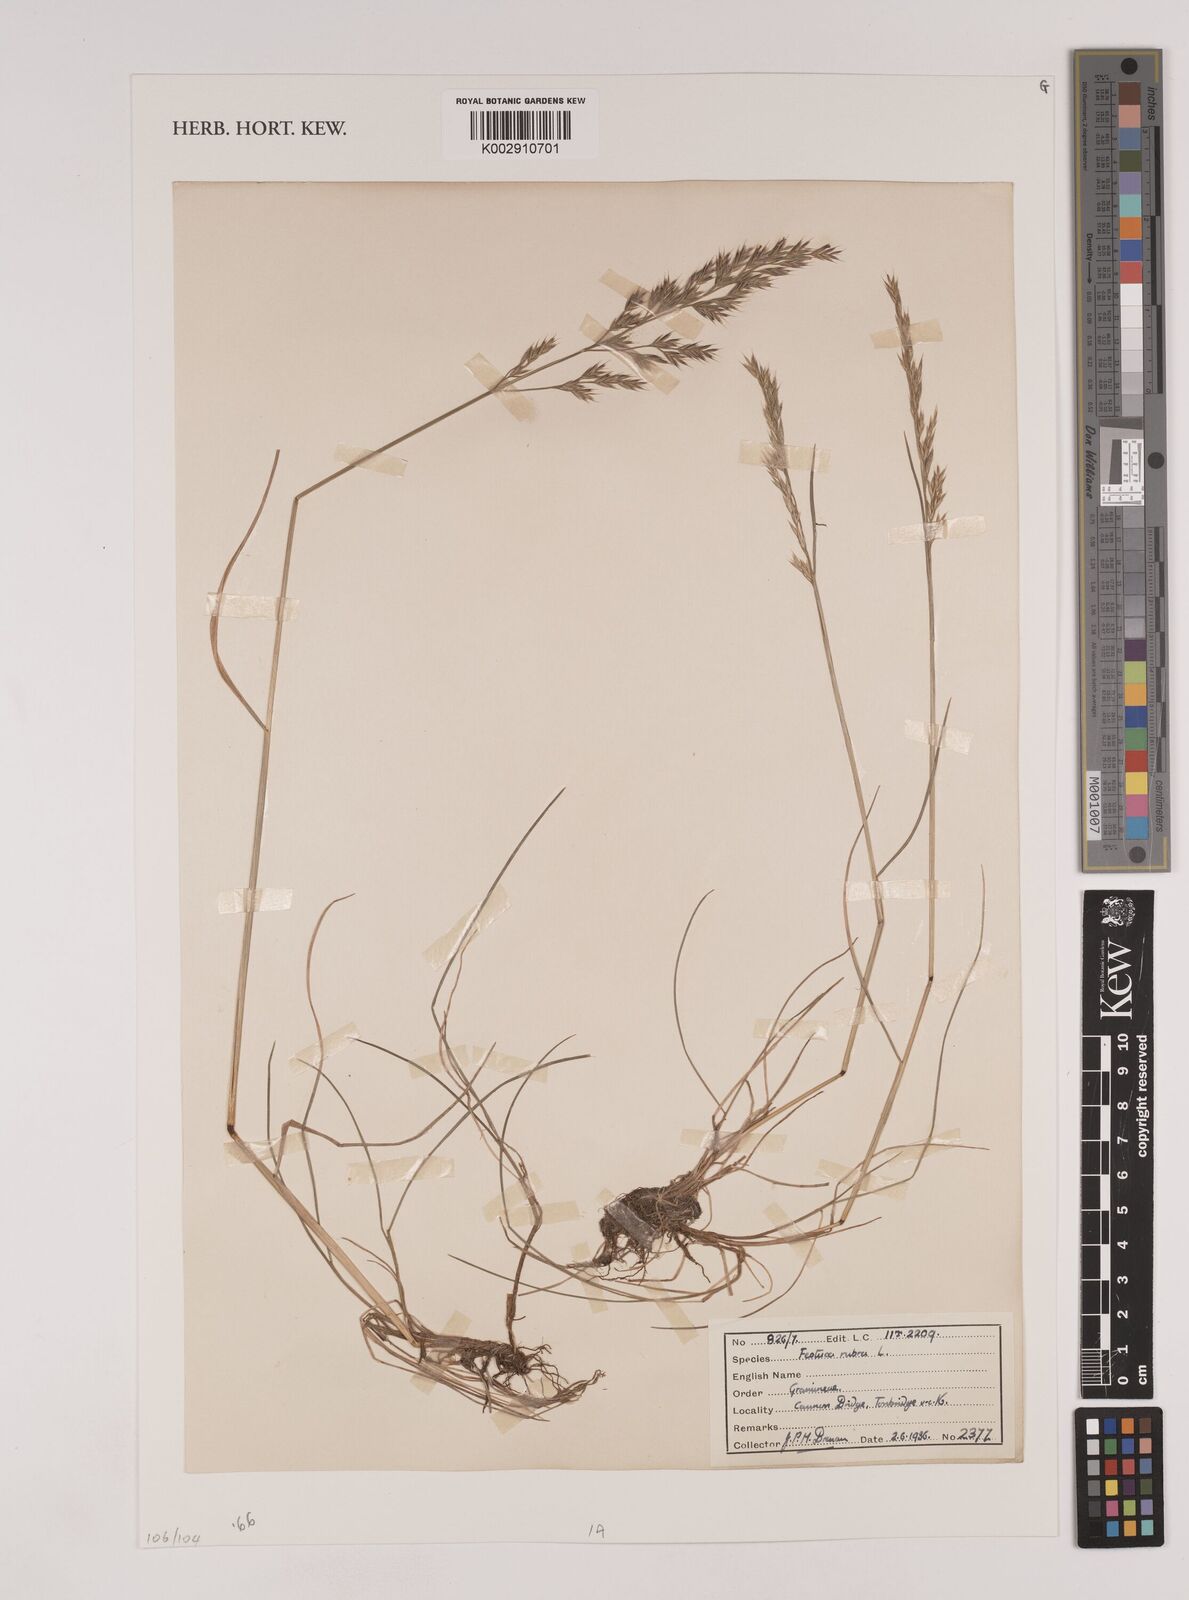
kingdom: Plantae
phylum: Tracheophyta
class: Liliopsida
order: Poales
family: Poaceae
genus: Festuca
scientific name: Festuca rubra
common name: Red fescue
